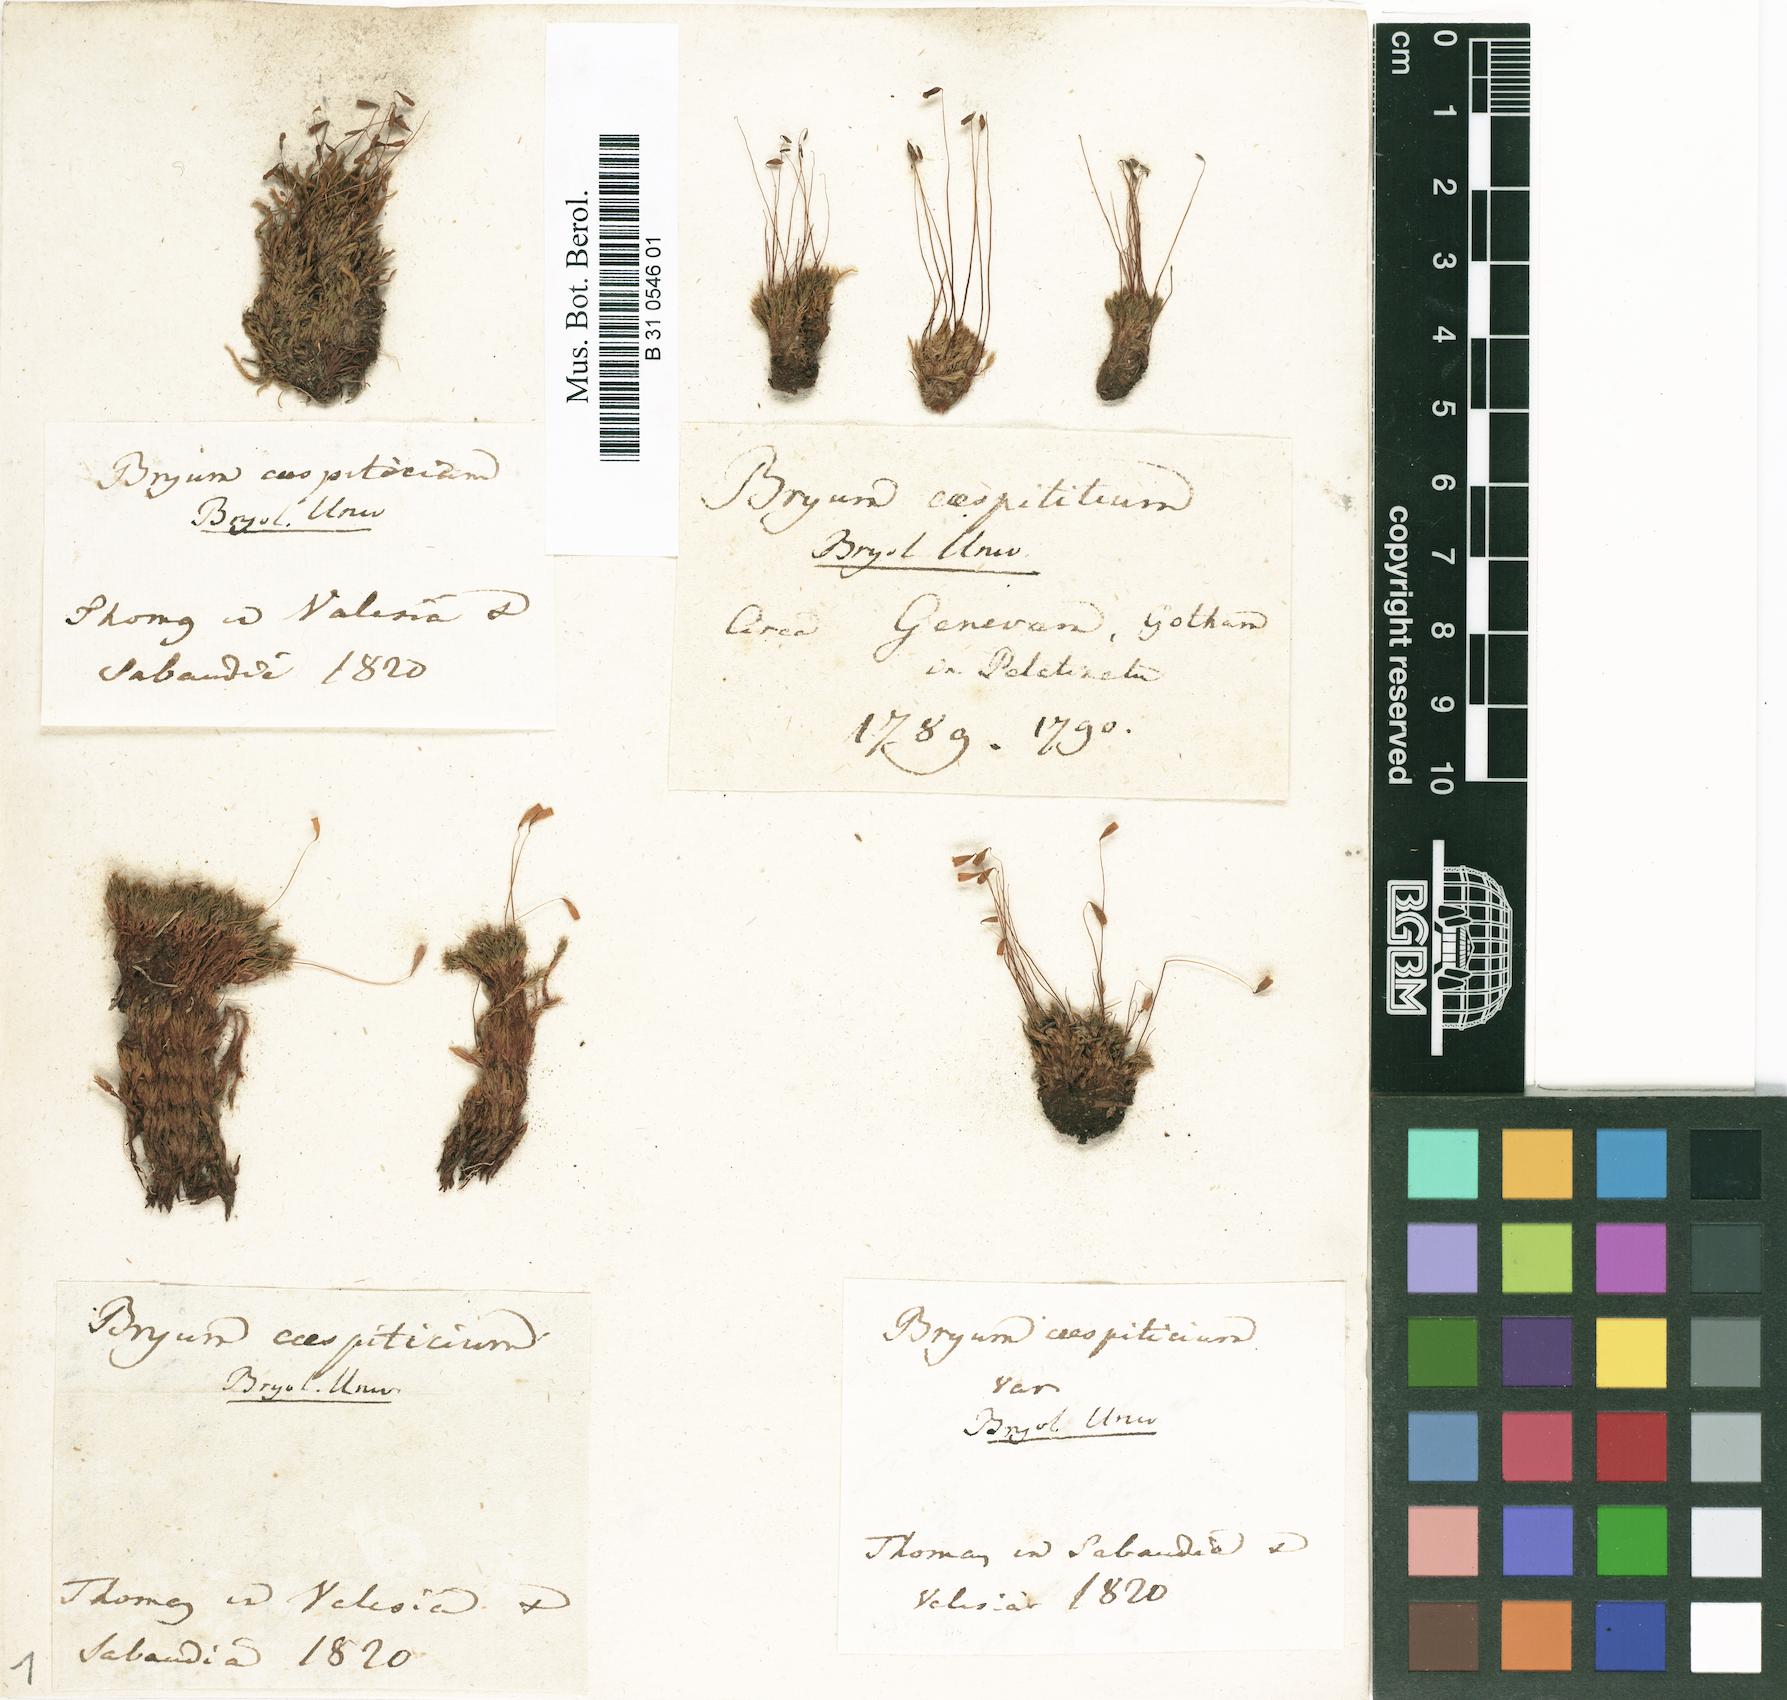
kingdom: Plantae
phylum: Bryophyta
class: Bryopsida
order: Bryales
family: Bryaceae
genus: Gemmabryum
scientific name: Gemmabryum caespiticium
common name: Handbell moss
